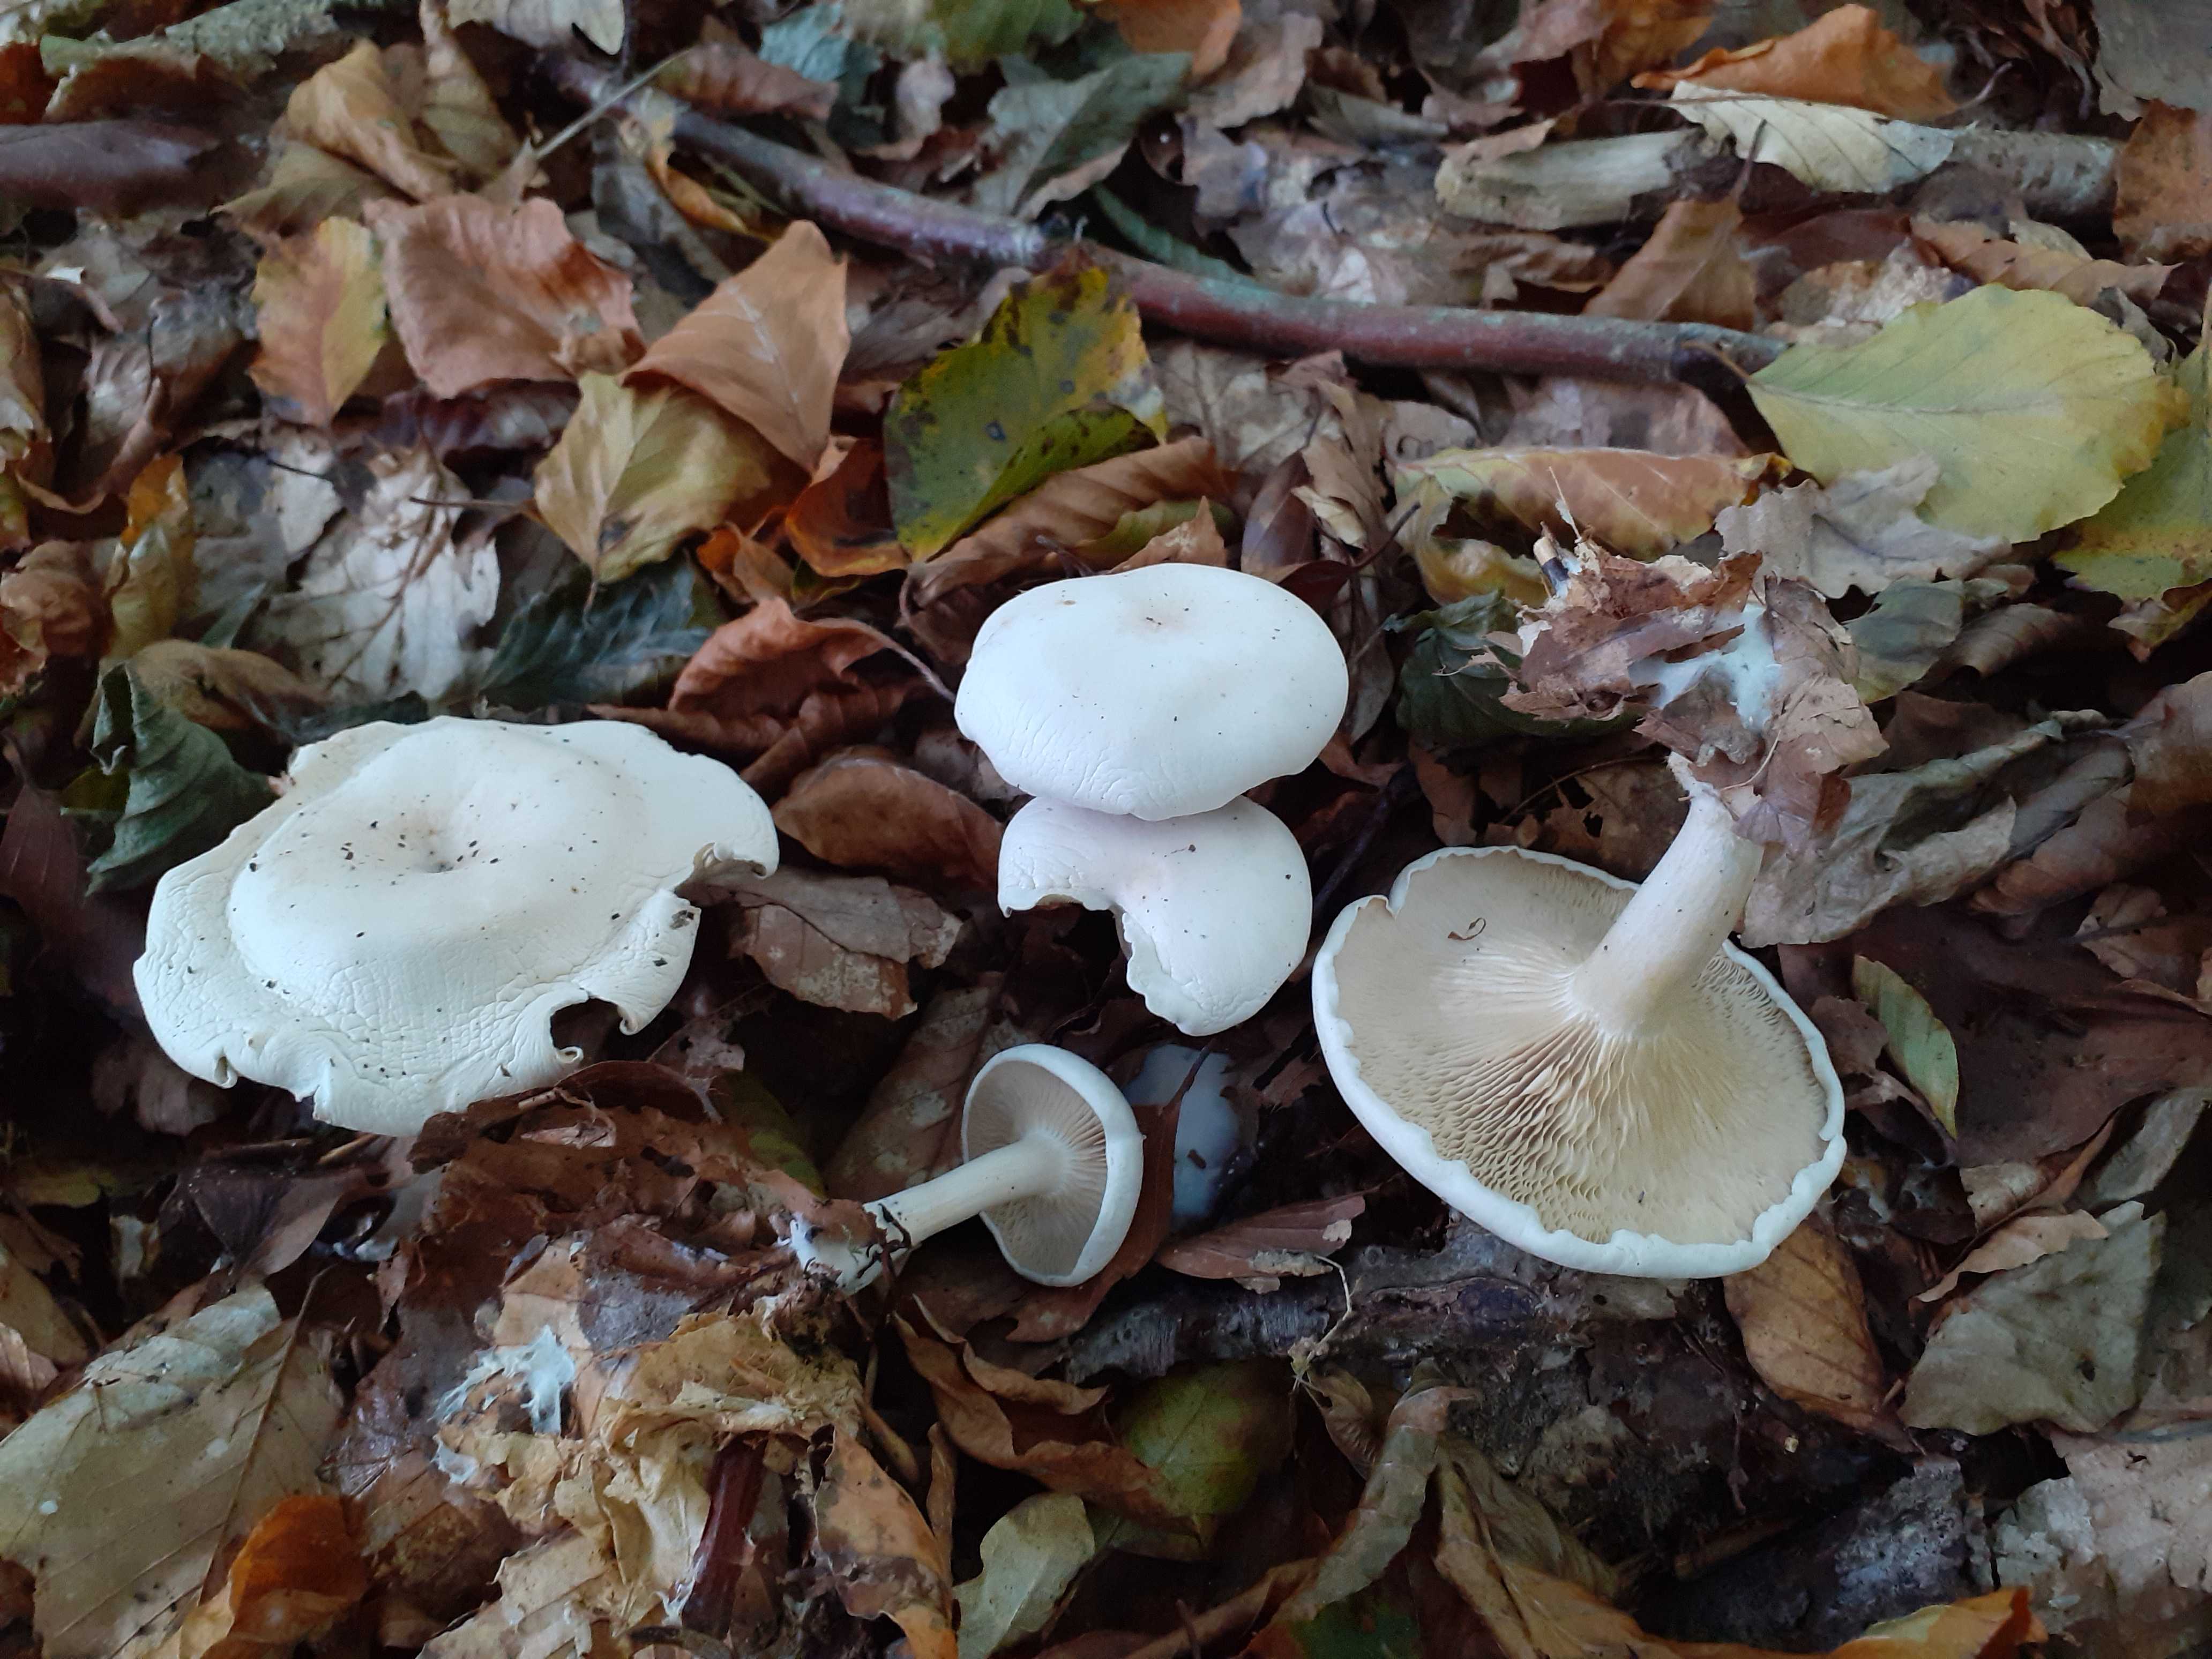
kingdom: Fungi
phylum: Basidiomycota
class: Agaricomycetes
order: Agaricales
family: Tricholomataceae
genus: Clitocybe
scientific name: Clitocybe phyllophila
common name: løv-tragthat
